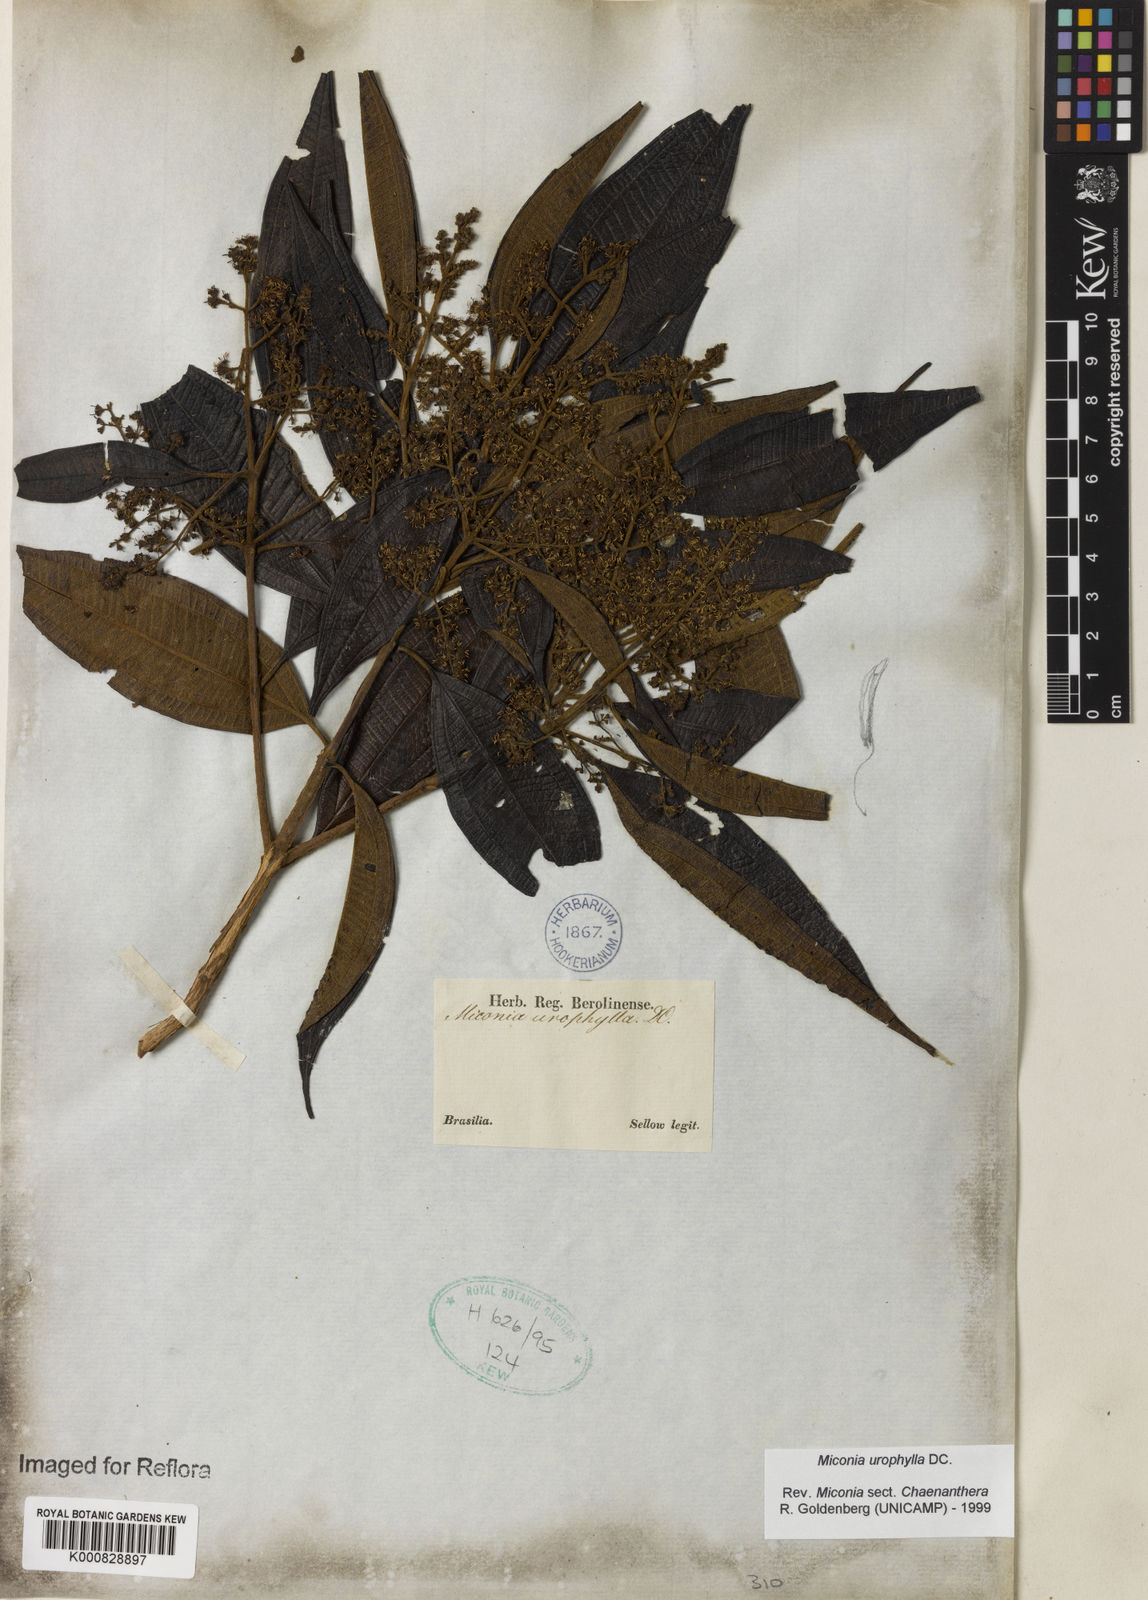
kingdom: Plantae
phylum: Tracheophyta
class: Magnoliopsida
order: Myrtales
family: Melastomataceae
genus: Miconia
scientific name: Miconia urophylla
